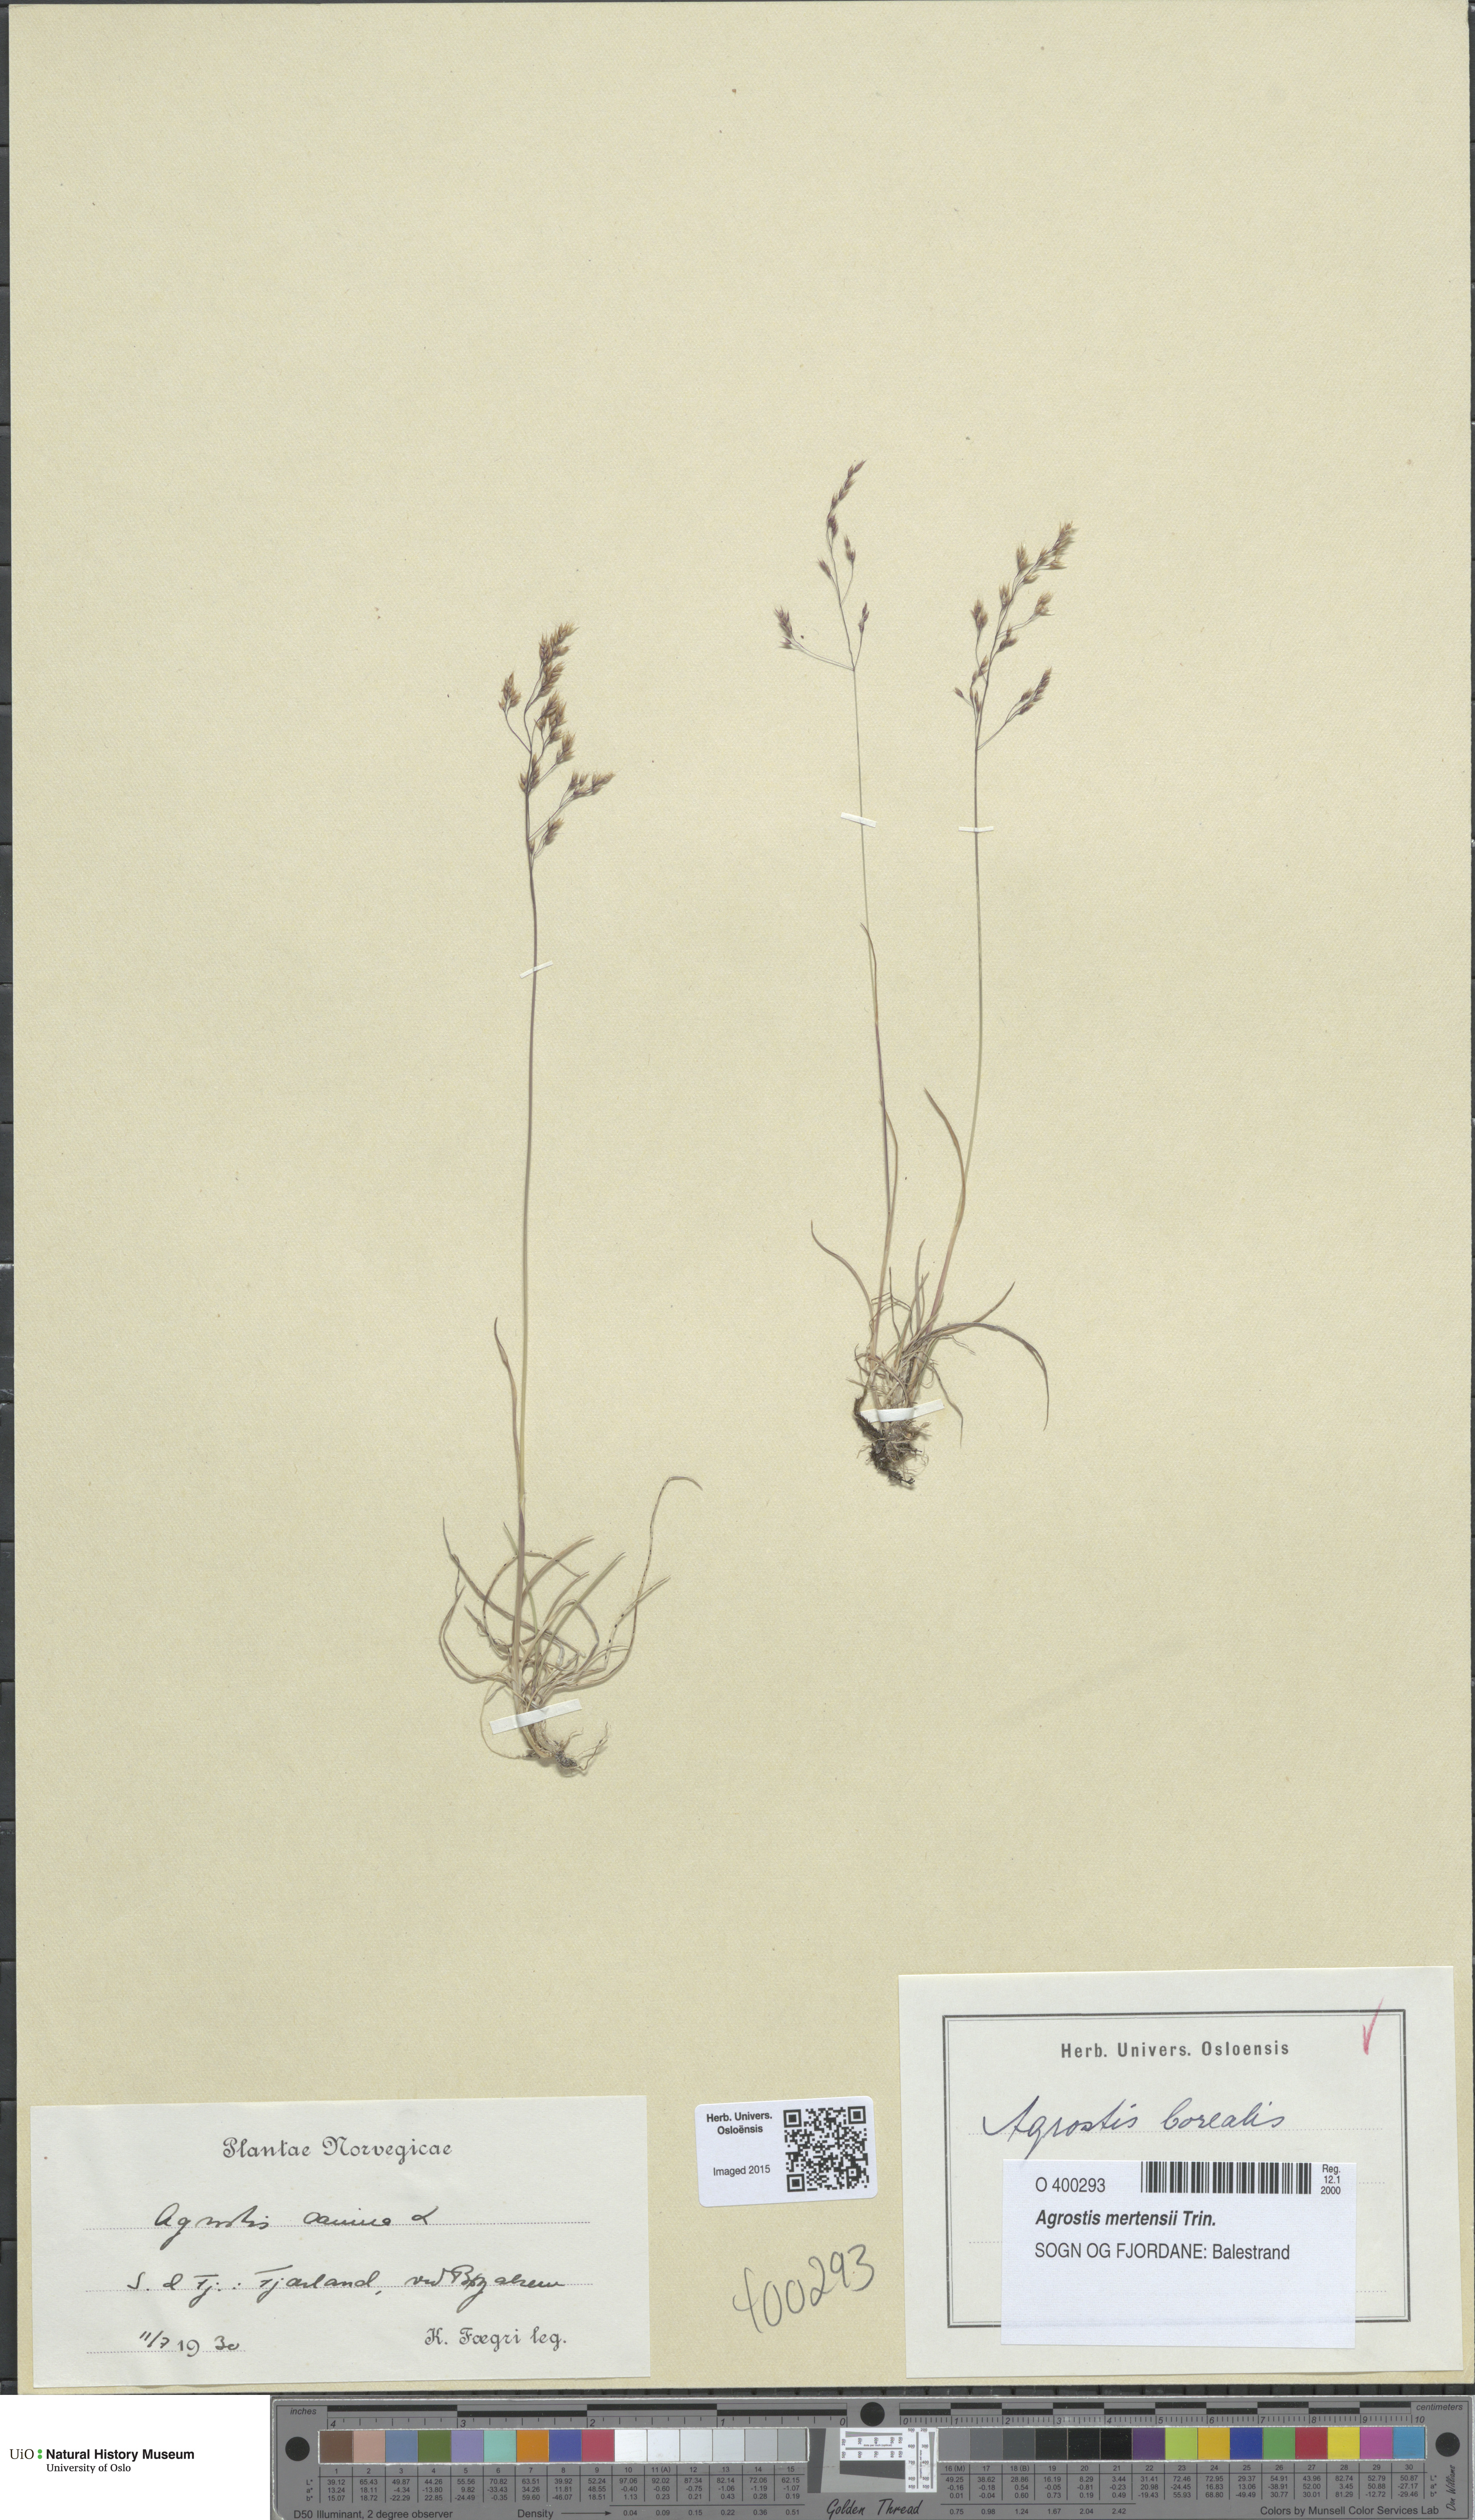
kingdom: Plantae
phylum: Tracheophyta
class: Liliopsida
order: Poales
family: Poaceae
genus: Agrostis
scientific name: Agrostis canina
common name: Velvet bent
